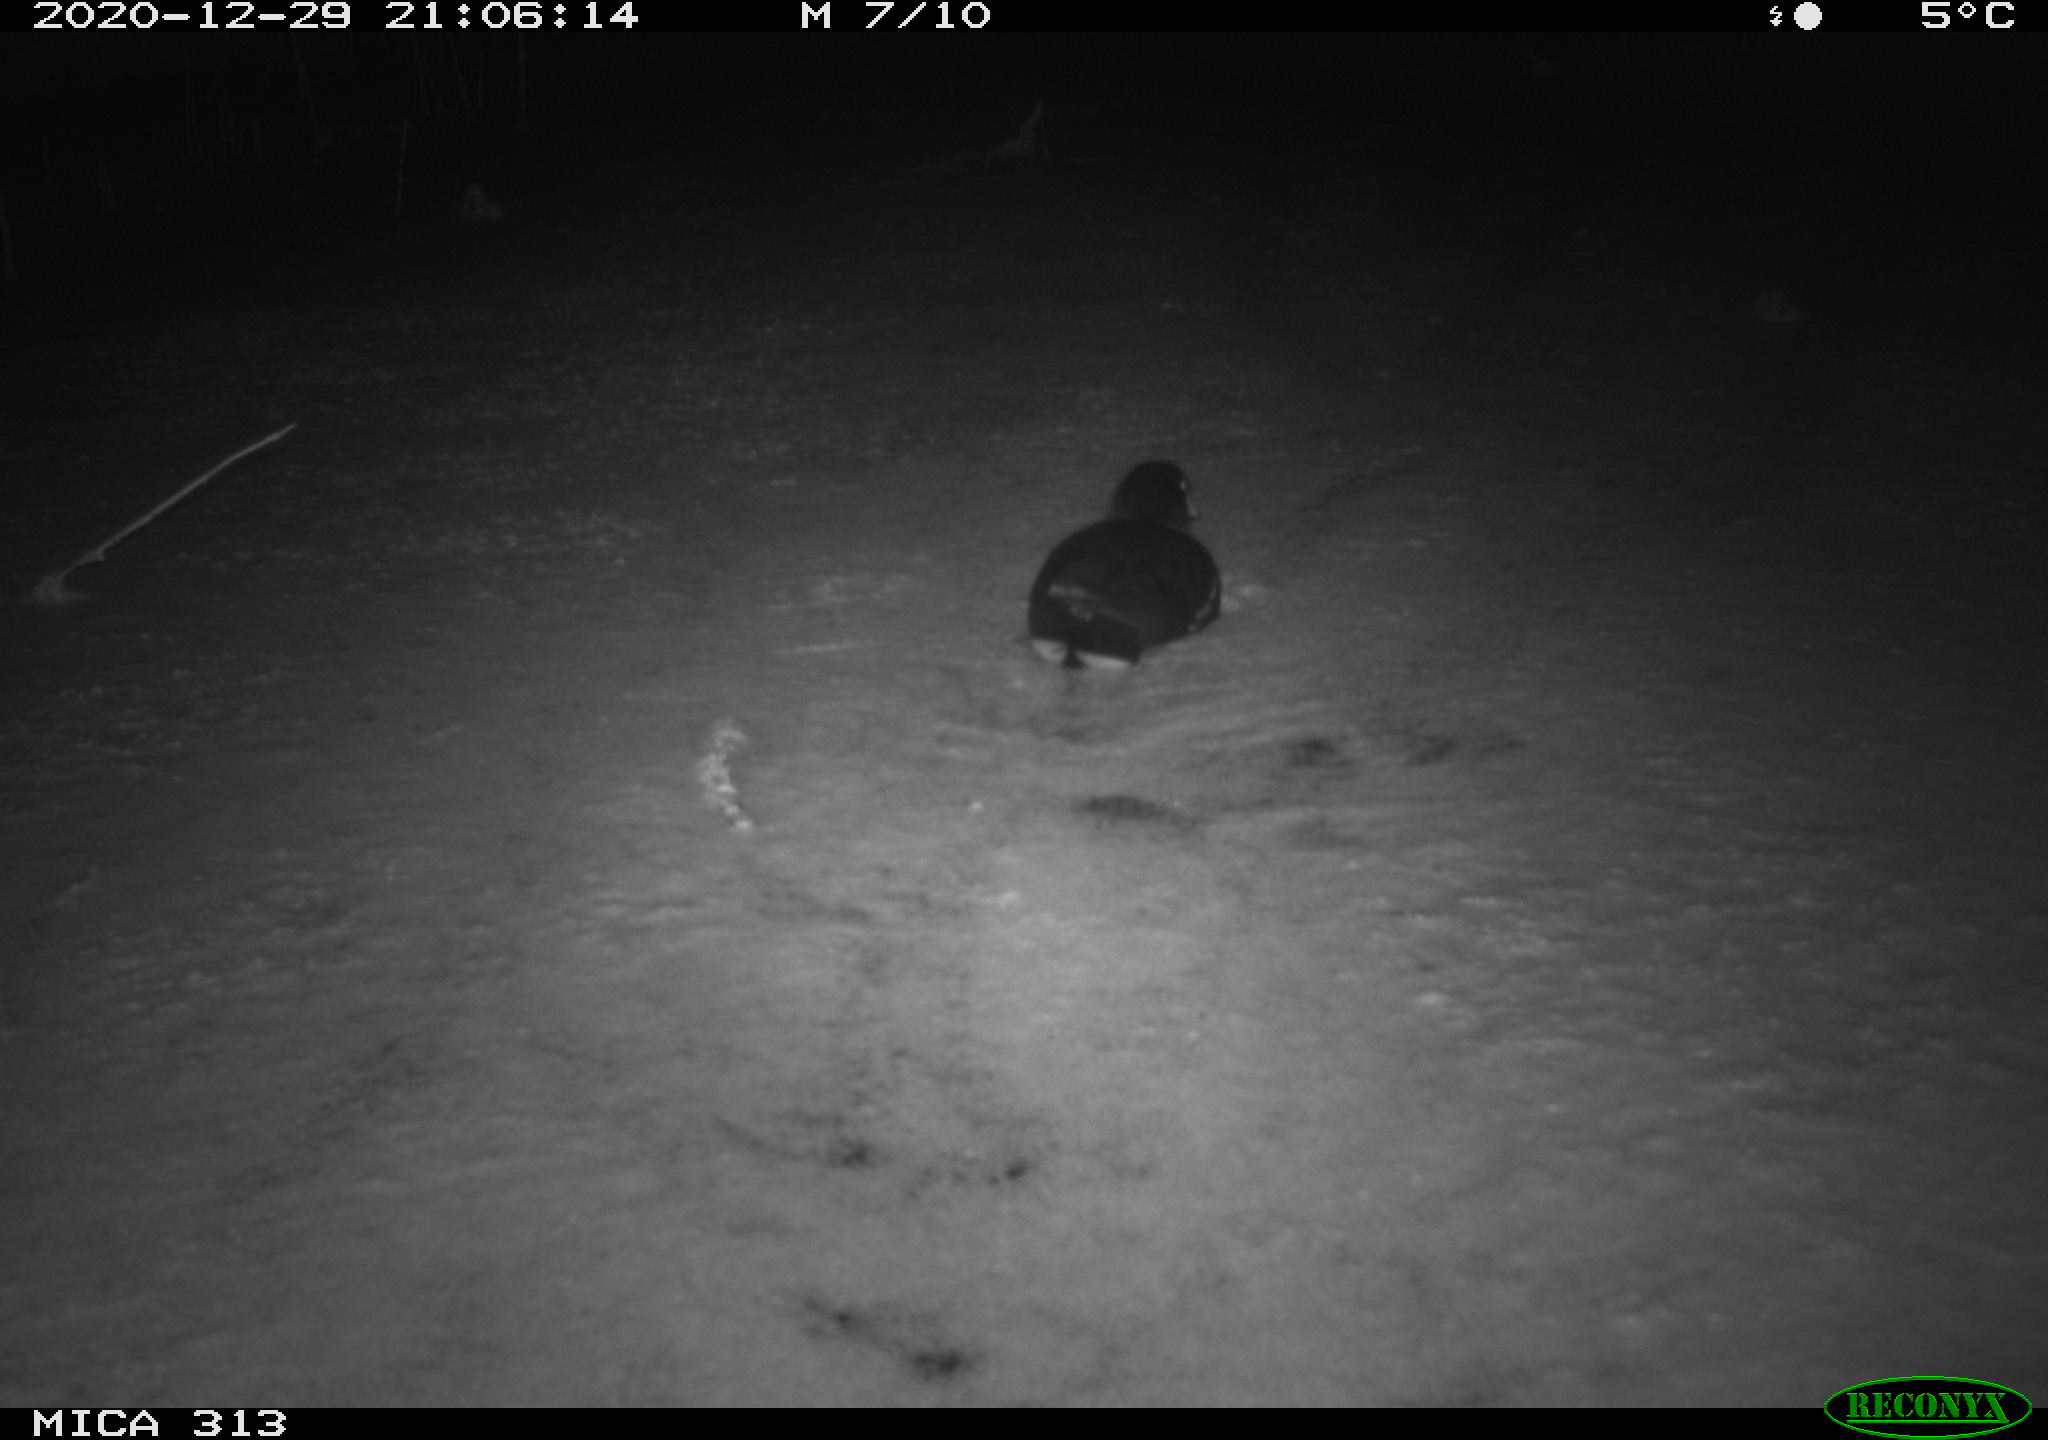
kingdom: Animalia
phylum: Chordata
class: Aves
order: Gruiformes
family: Rallidae
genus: Gallinula
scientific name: Gallinula chloropus
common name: Common moorhen
